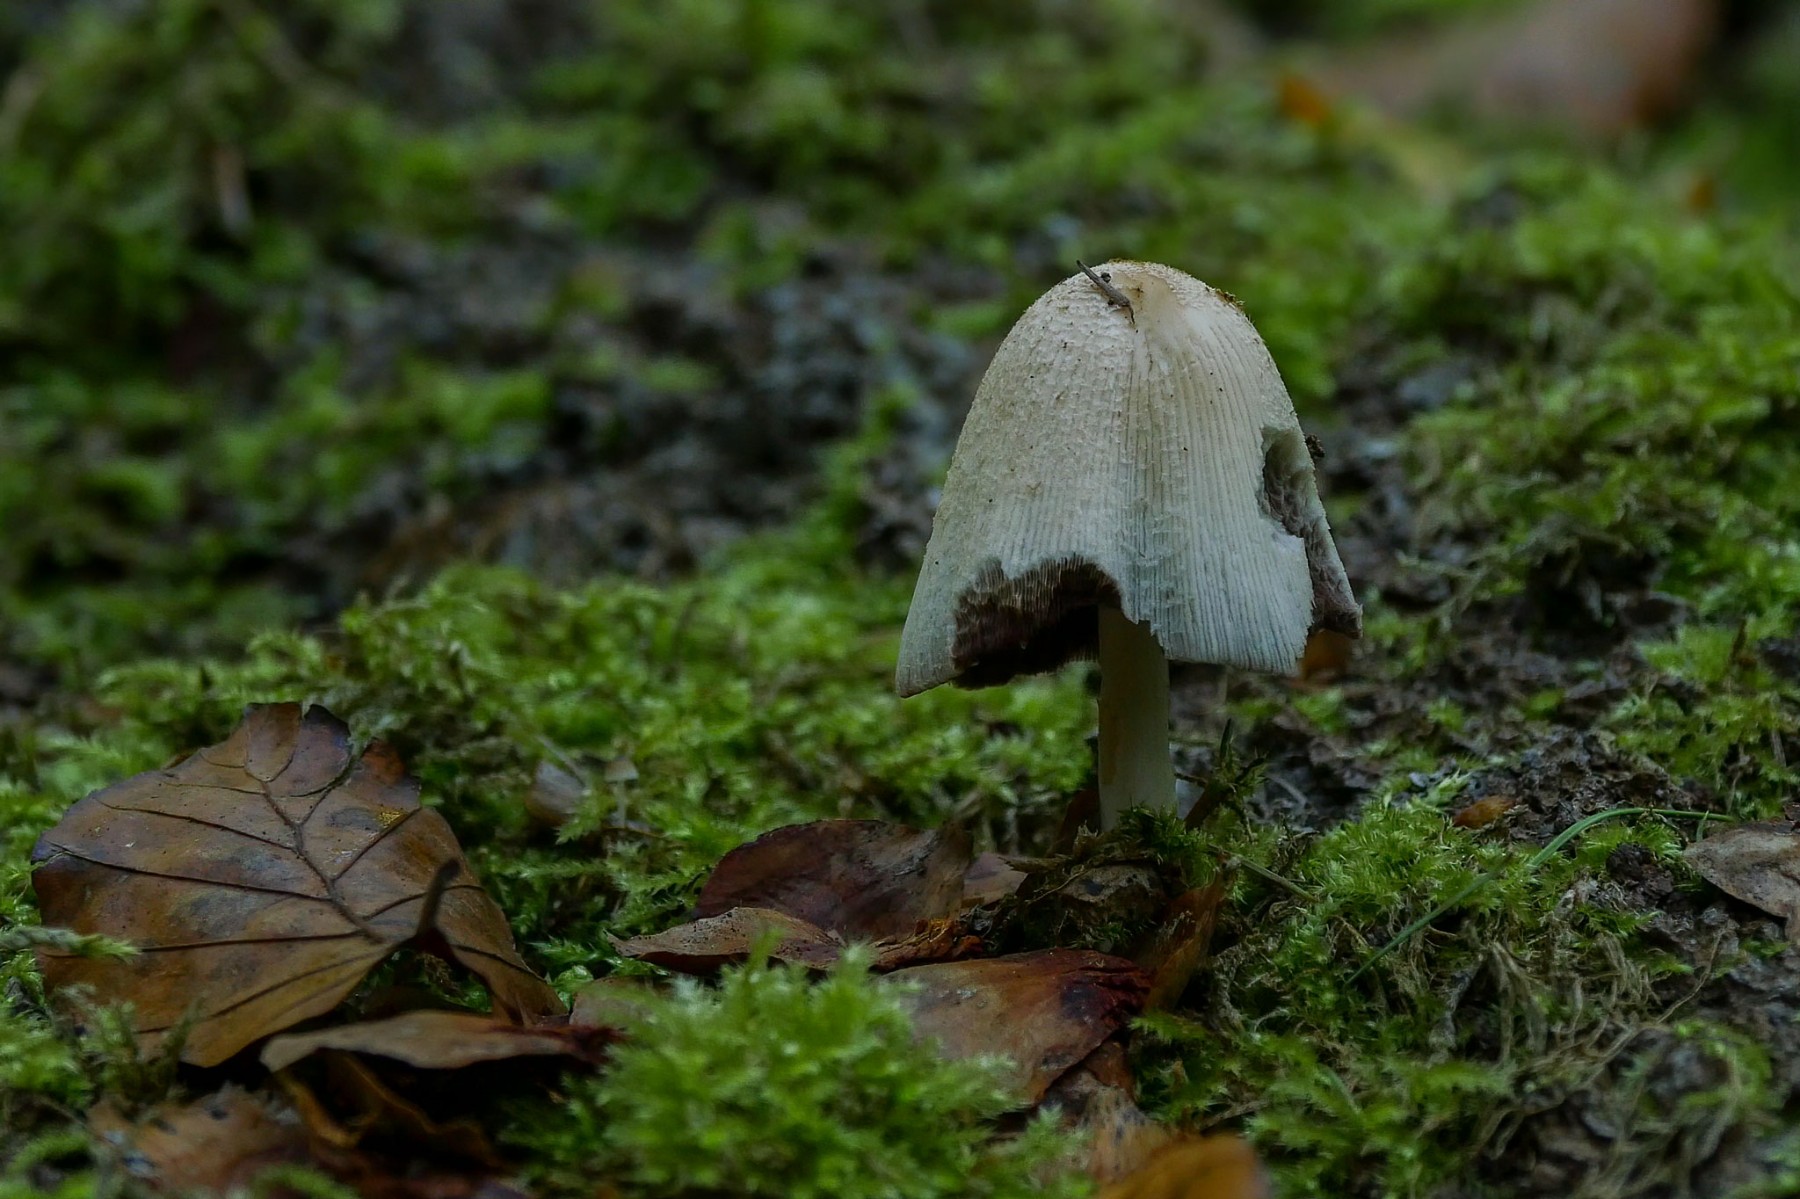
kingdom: Fungi
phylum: Basidiomycota
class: Agaricomycetes
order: Agaricales
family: Psathyrellaceae
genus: Coprinopsis
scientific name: Coprinopsis insignis
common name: stor blækhat
